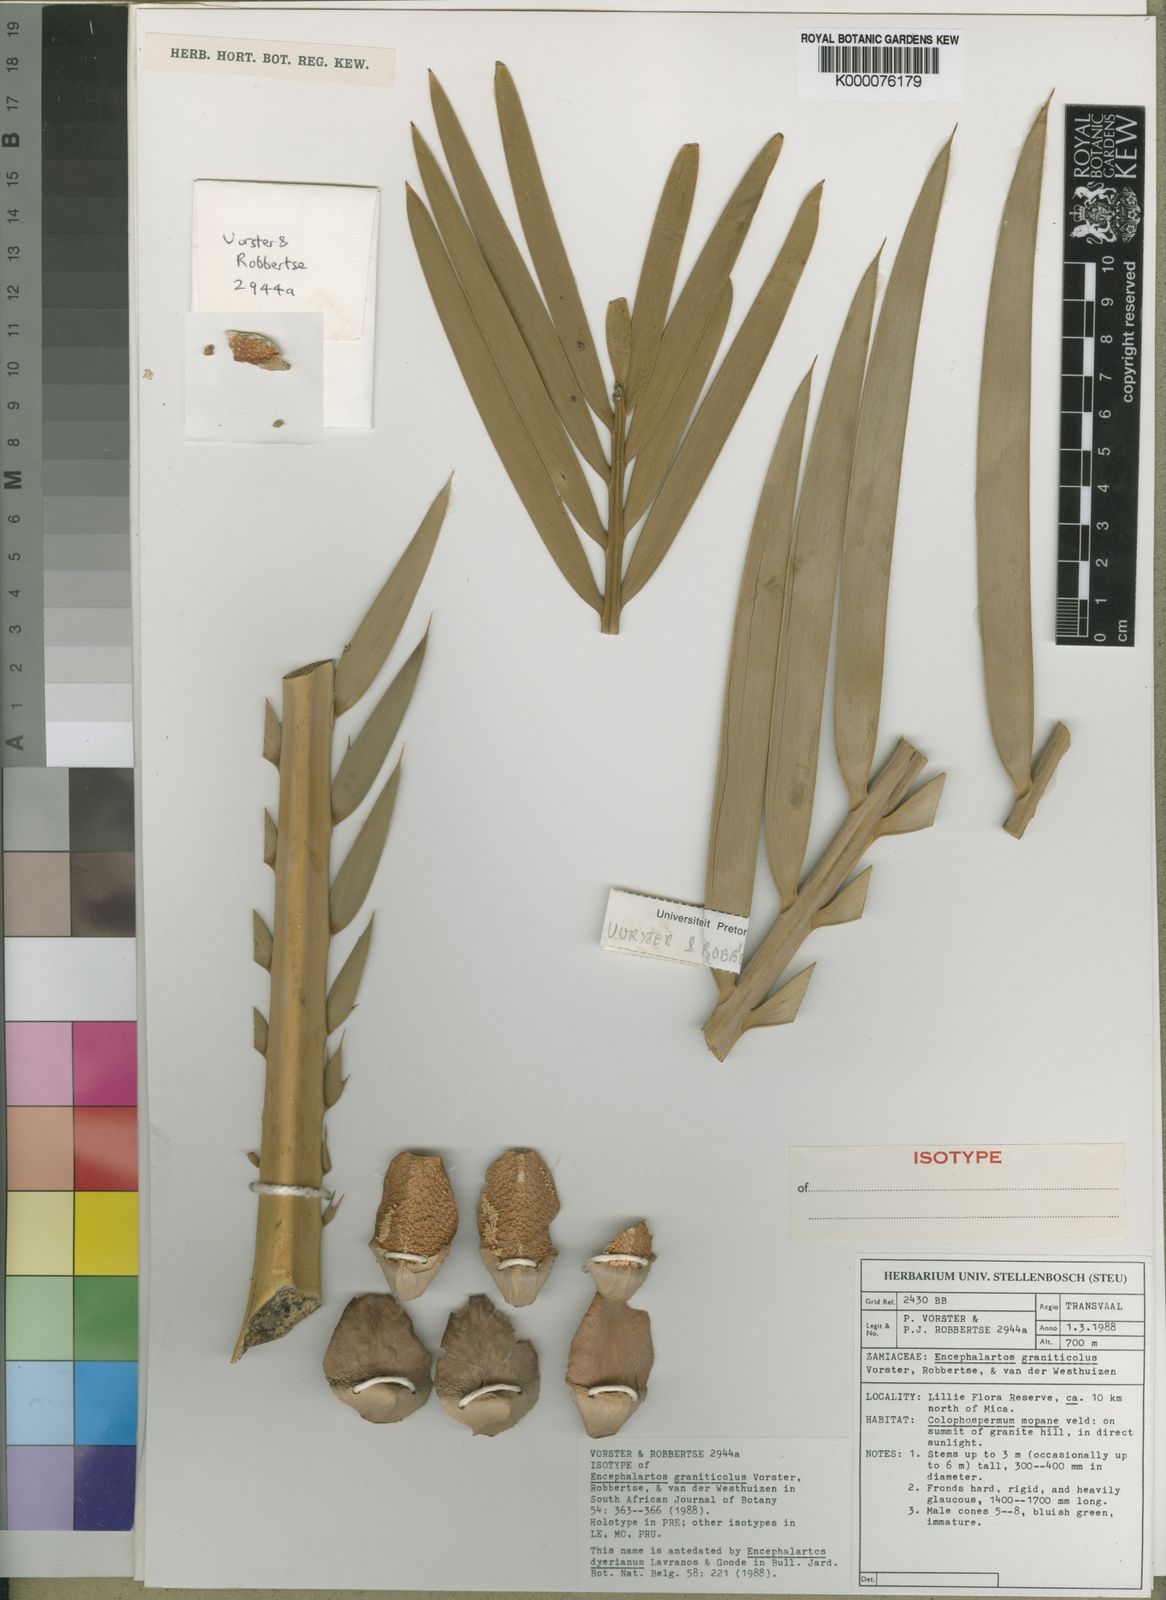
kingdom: Plantae
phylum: Tracheophyta
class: Cycadopsida
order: Cycadales
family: Zamiaceae
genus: Encephalartos
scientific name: Encephalartos
